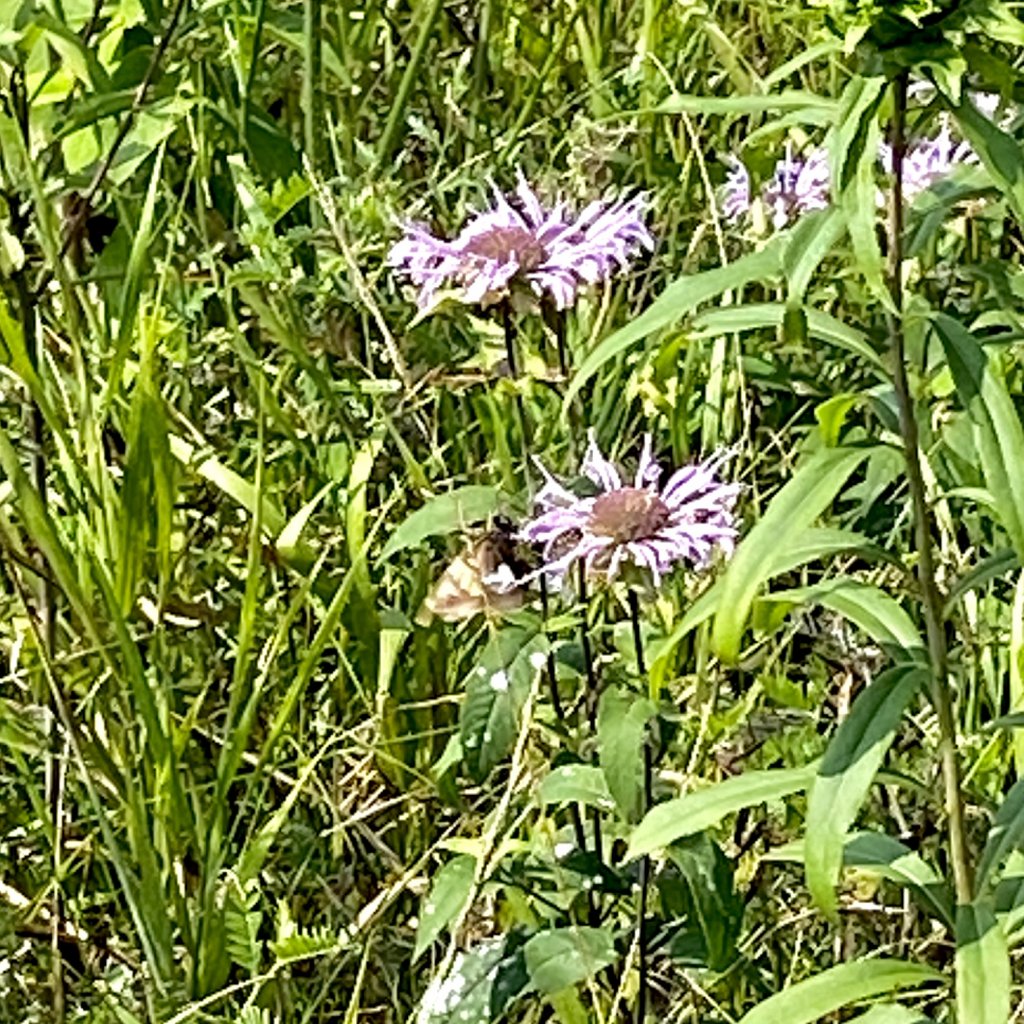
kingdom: Animalia
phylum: Arthropoda
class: Insecta
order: Lepidoptera
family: Hesperiidae
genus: Epargyreus
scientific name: Epargyreus clarus
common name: Silver-spotted Skipper
